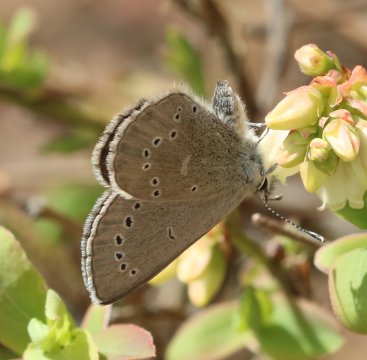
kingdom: Animalia
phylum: Arthropoda
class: Insecta
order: Lepidoptera
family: Lycaenidae
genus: Glaucopsyche
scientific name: Glaucopsyche lygdamus
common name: Silvery Blue
